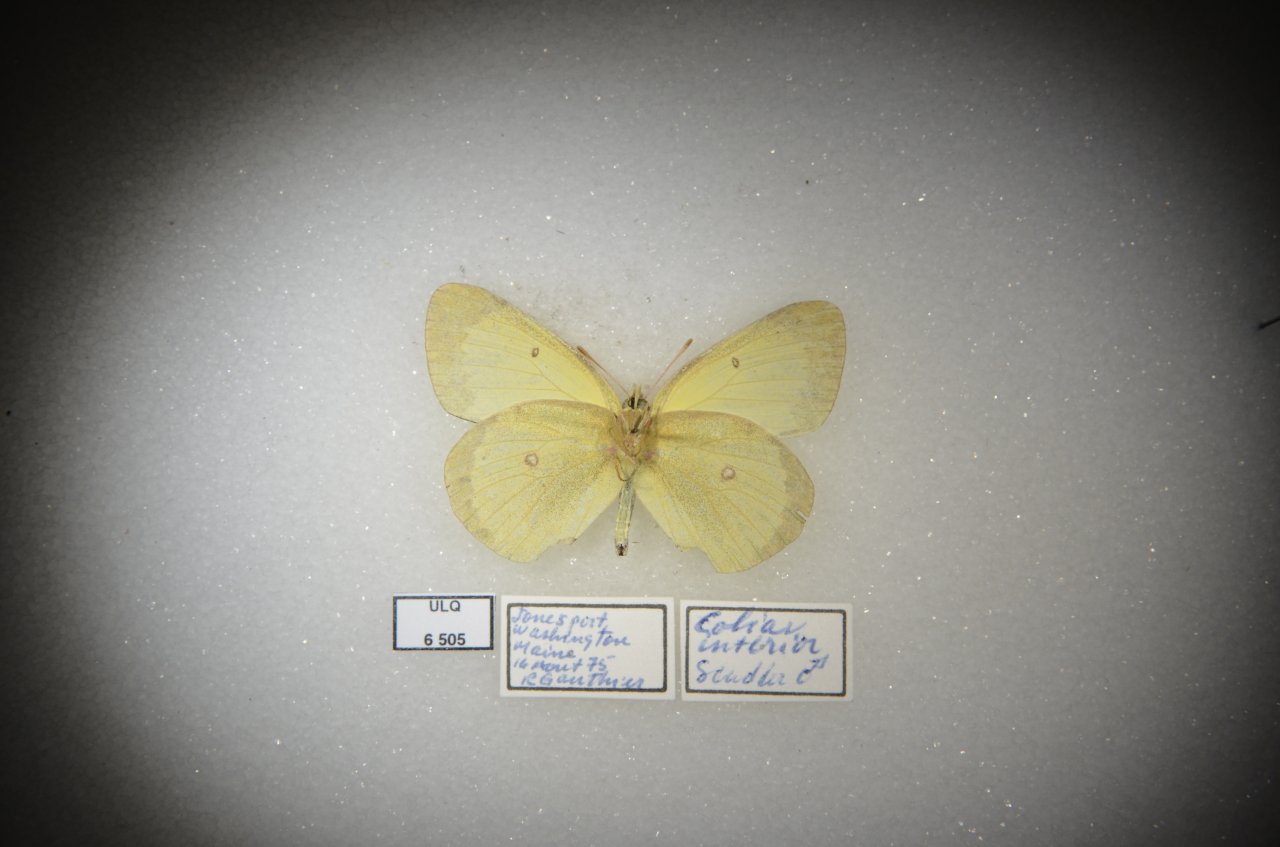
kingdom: Animalia
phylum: Arthropoda
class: Insecta
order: Lepidoptera
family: Pieridae
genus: Colias
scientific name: Colias interior
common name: Pink-edged Sulphur
